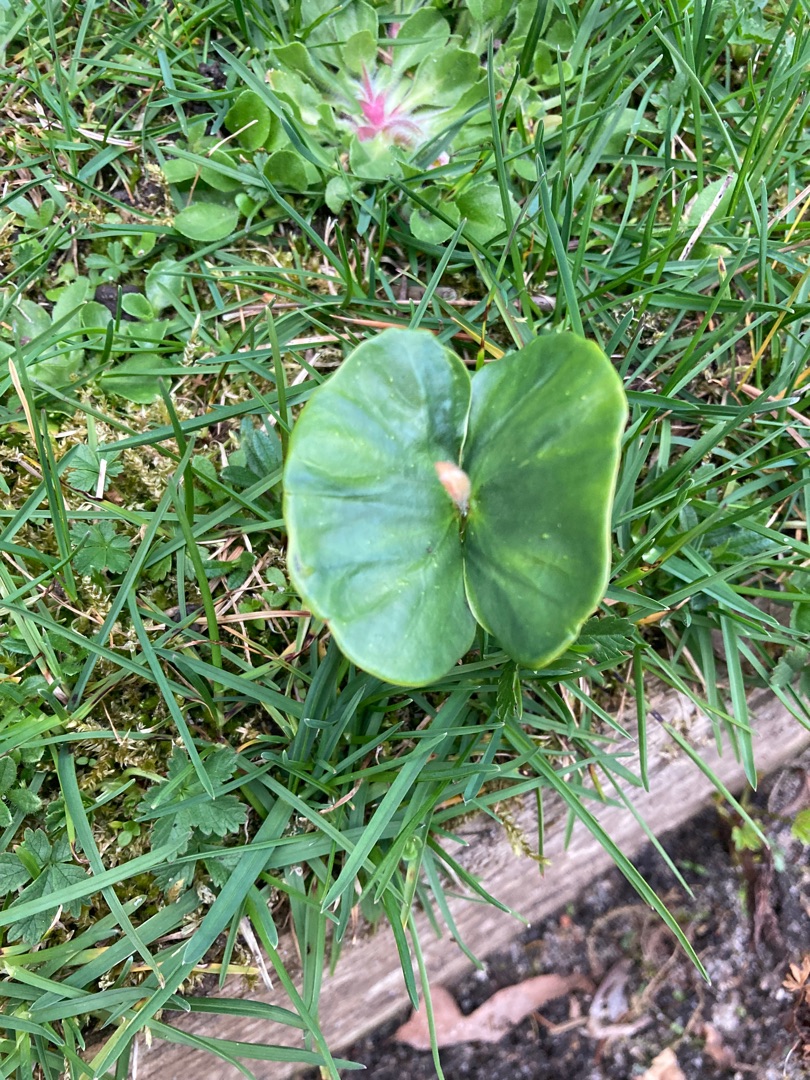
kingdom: Plantae
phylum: Tracheophyta
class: Magnoliopsida
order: Fagales
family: Fagaceae
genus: Fagus
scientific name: Fagus sylvatica
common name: Bøg
